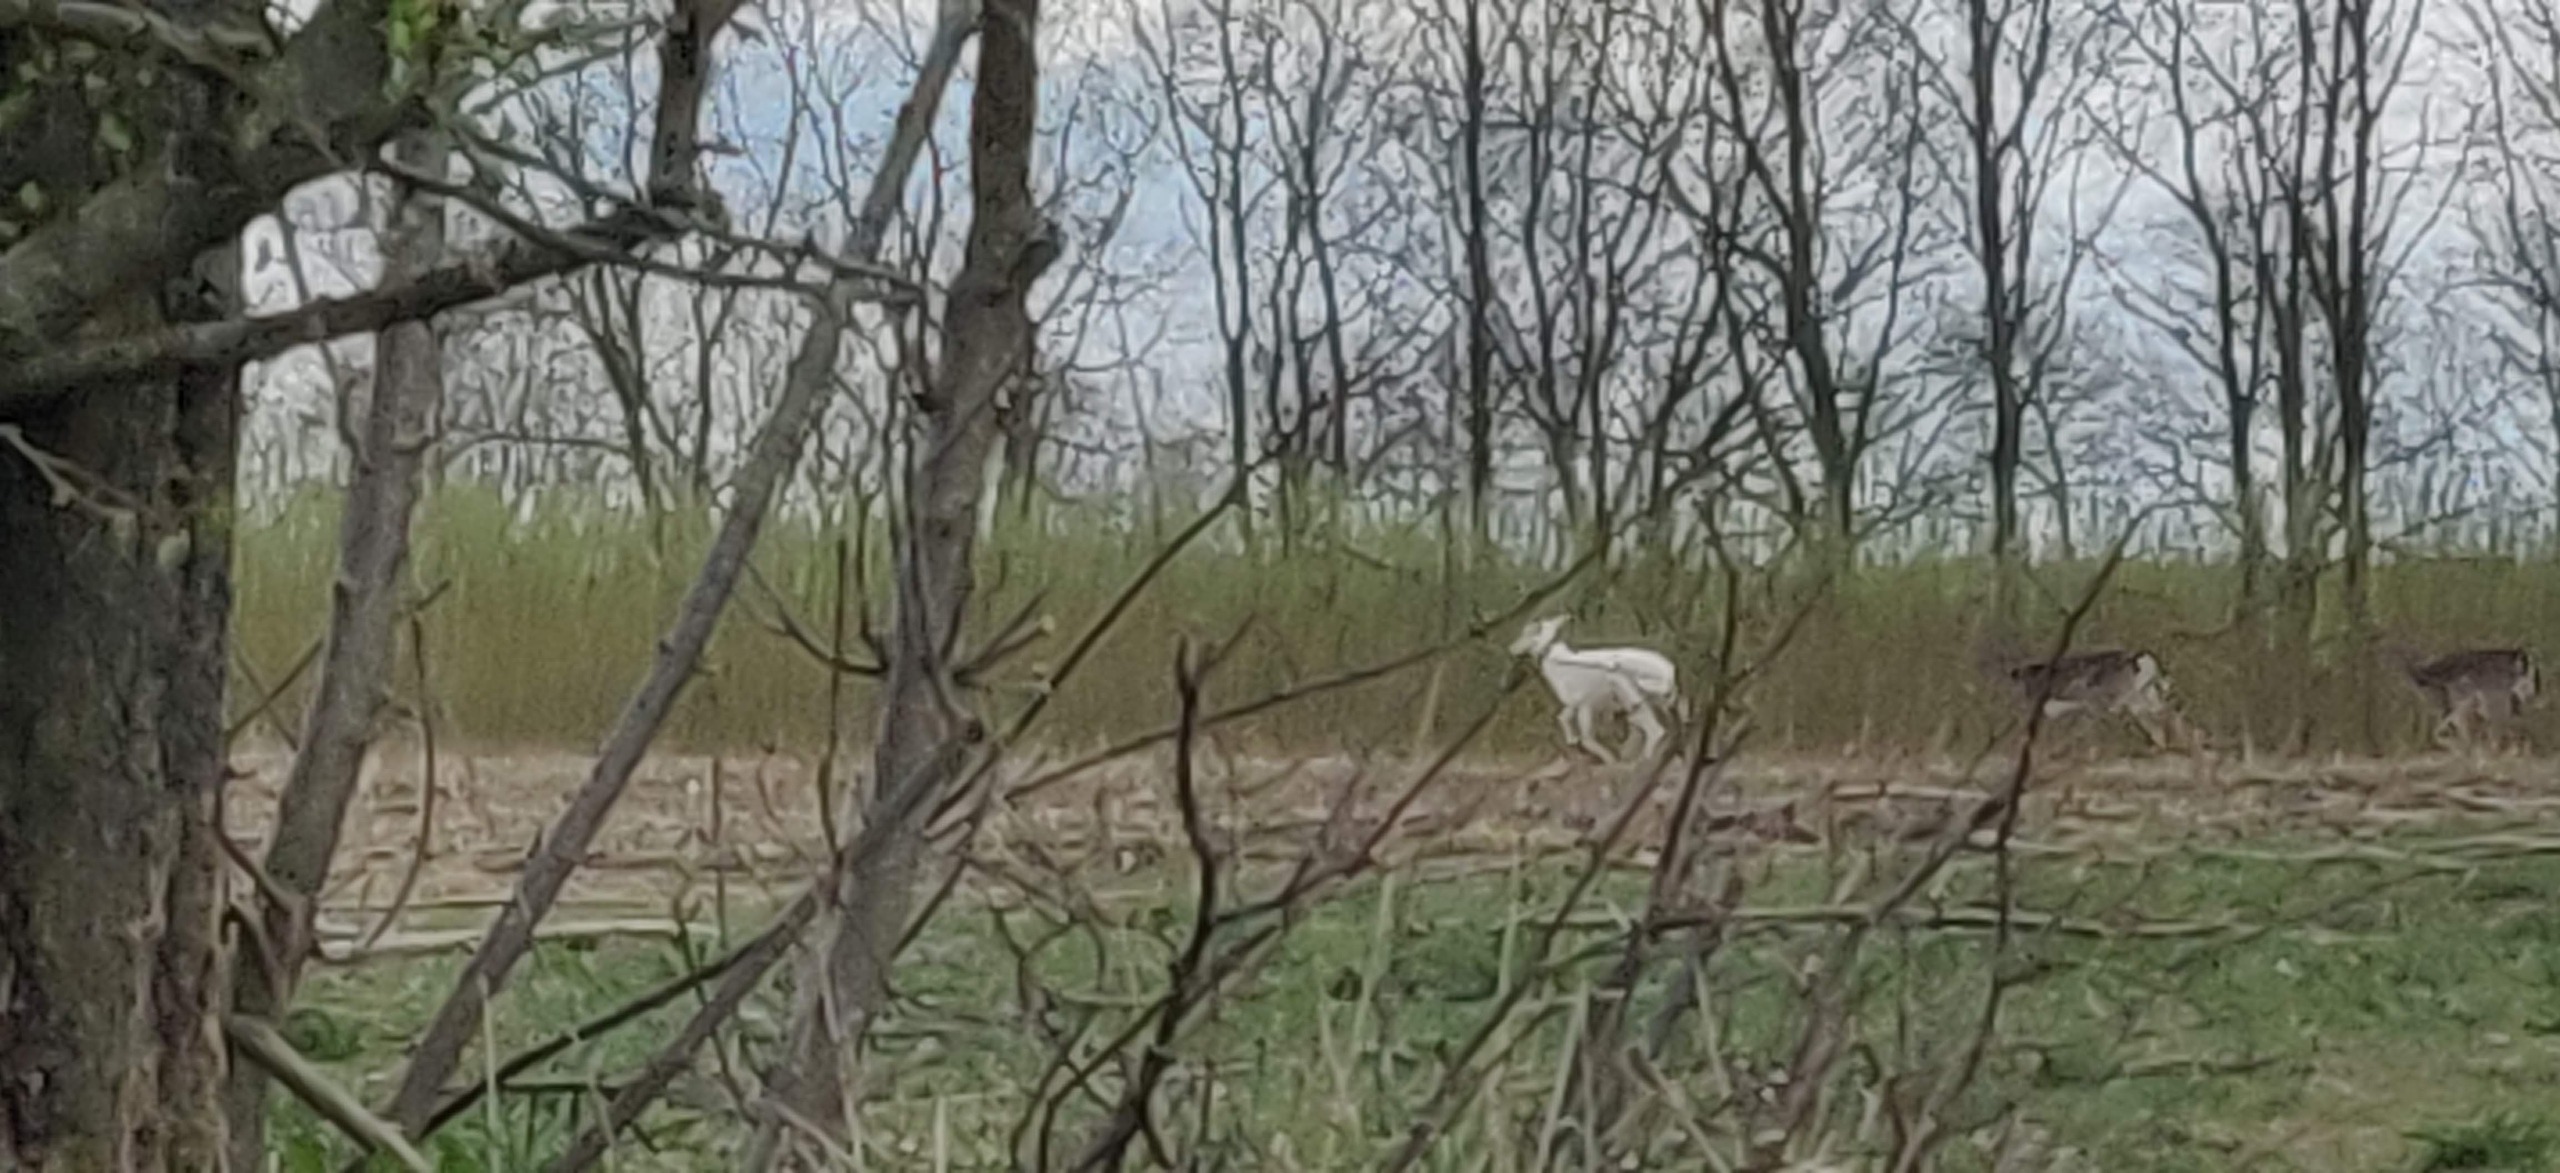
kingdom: Animalia
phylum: Chordata
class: Mammalia
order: Artiodactyla
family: Cervidae
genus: Dama
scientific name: Dama dama
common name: Dådyr
